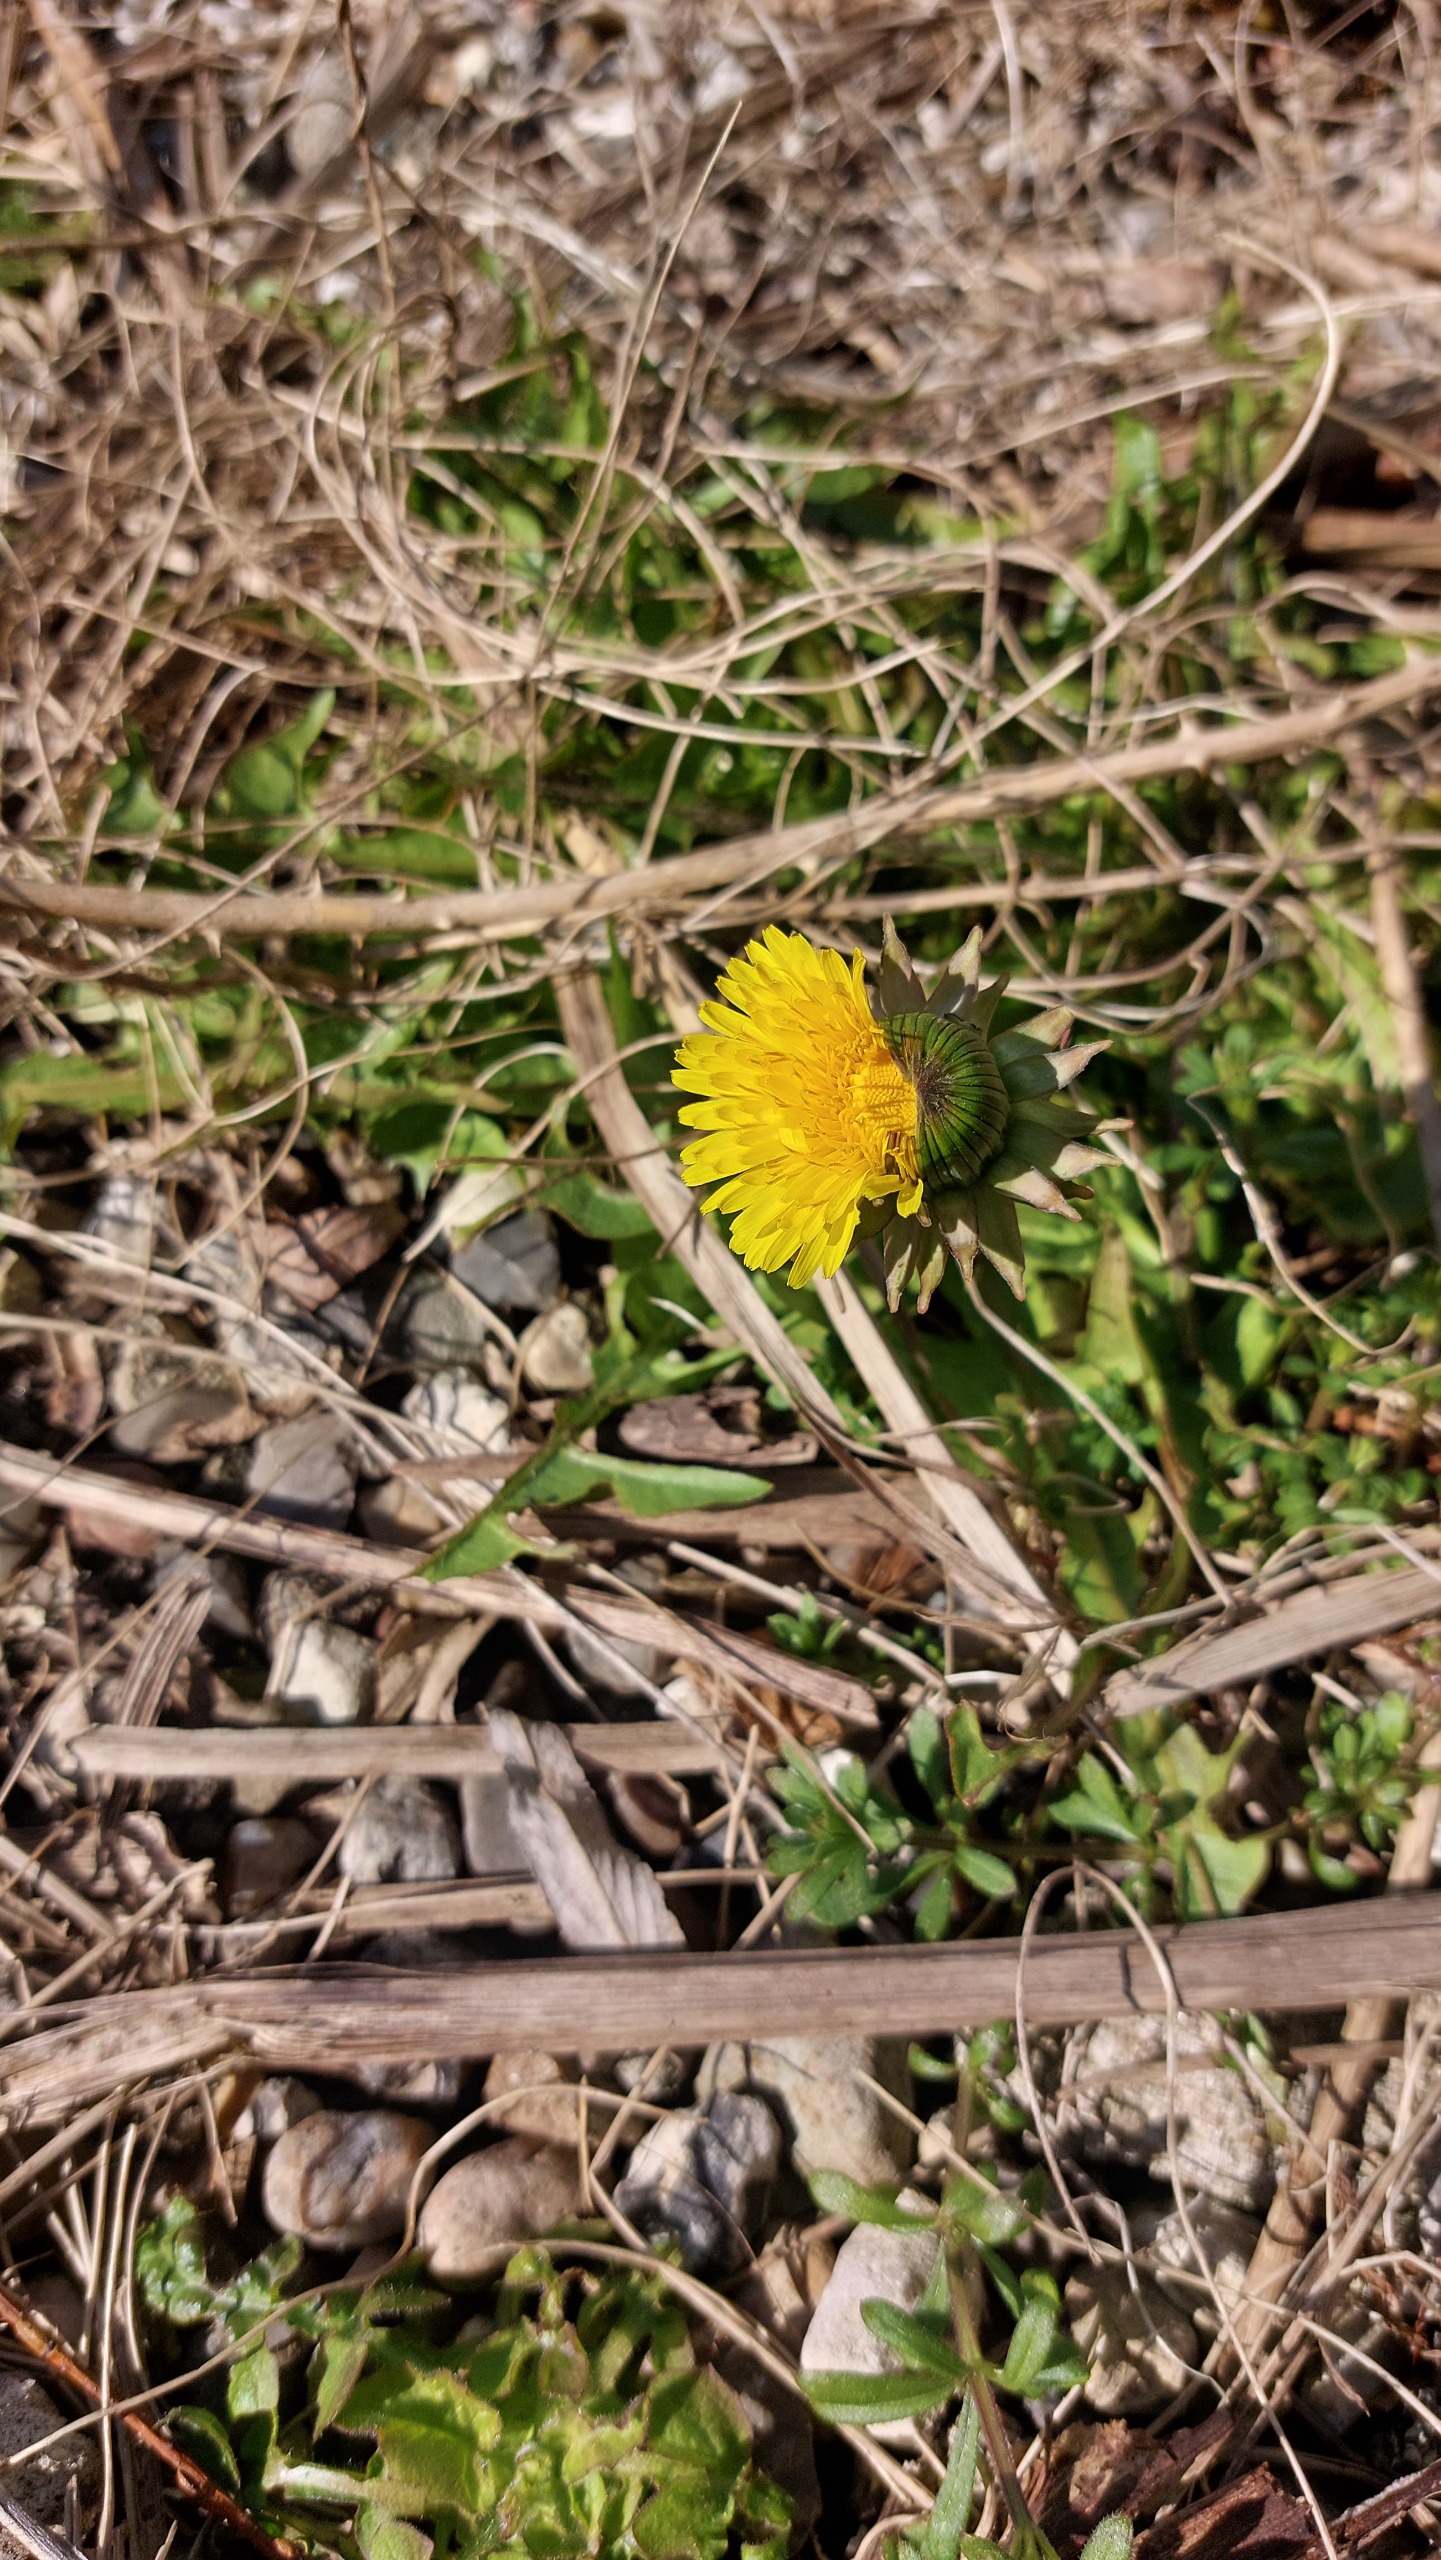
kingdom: Plantae
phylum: Tracheophyta
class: Magnoliopsida
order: Asterales
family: Asteraceae
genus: Taraxacum
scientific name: Taraxacum
